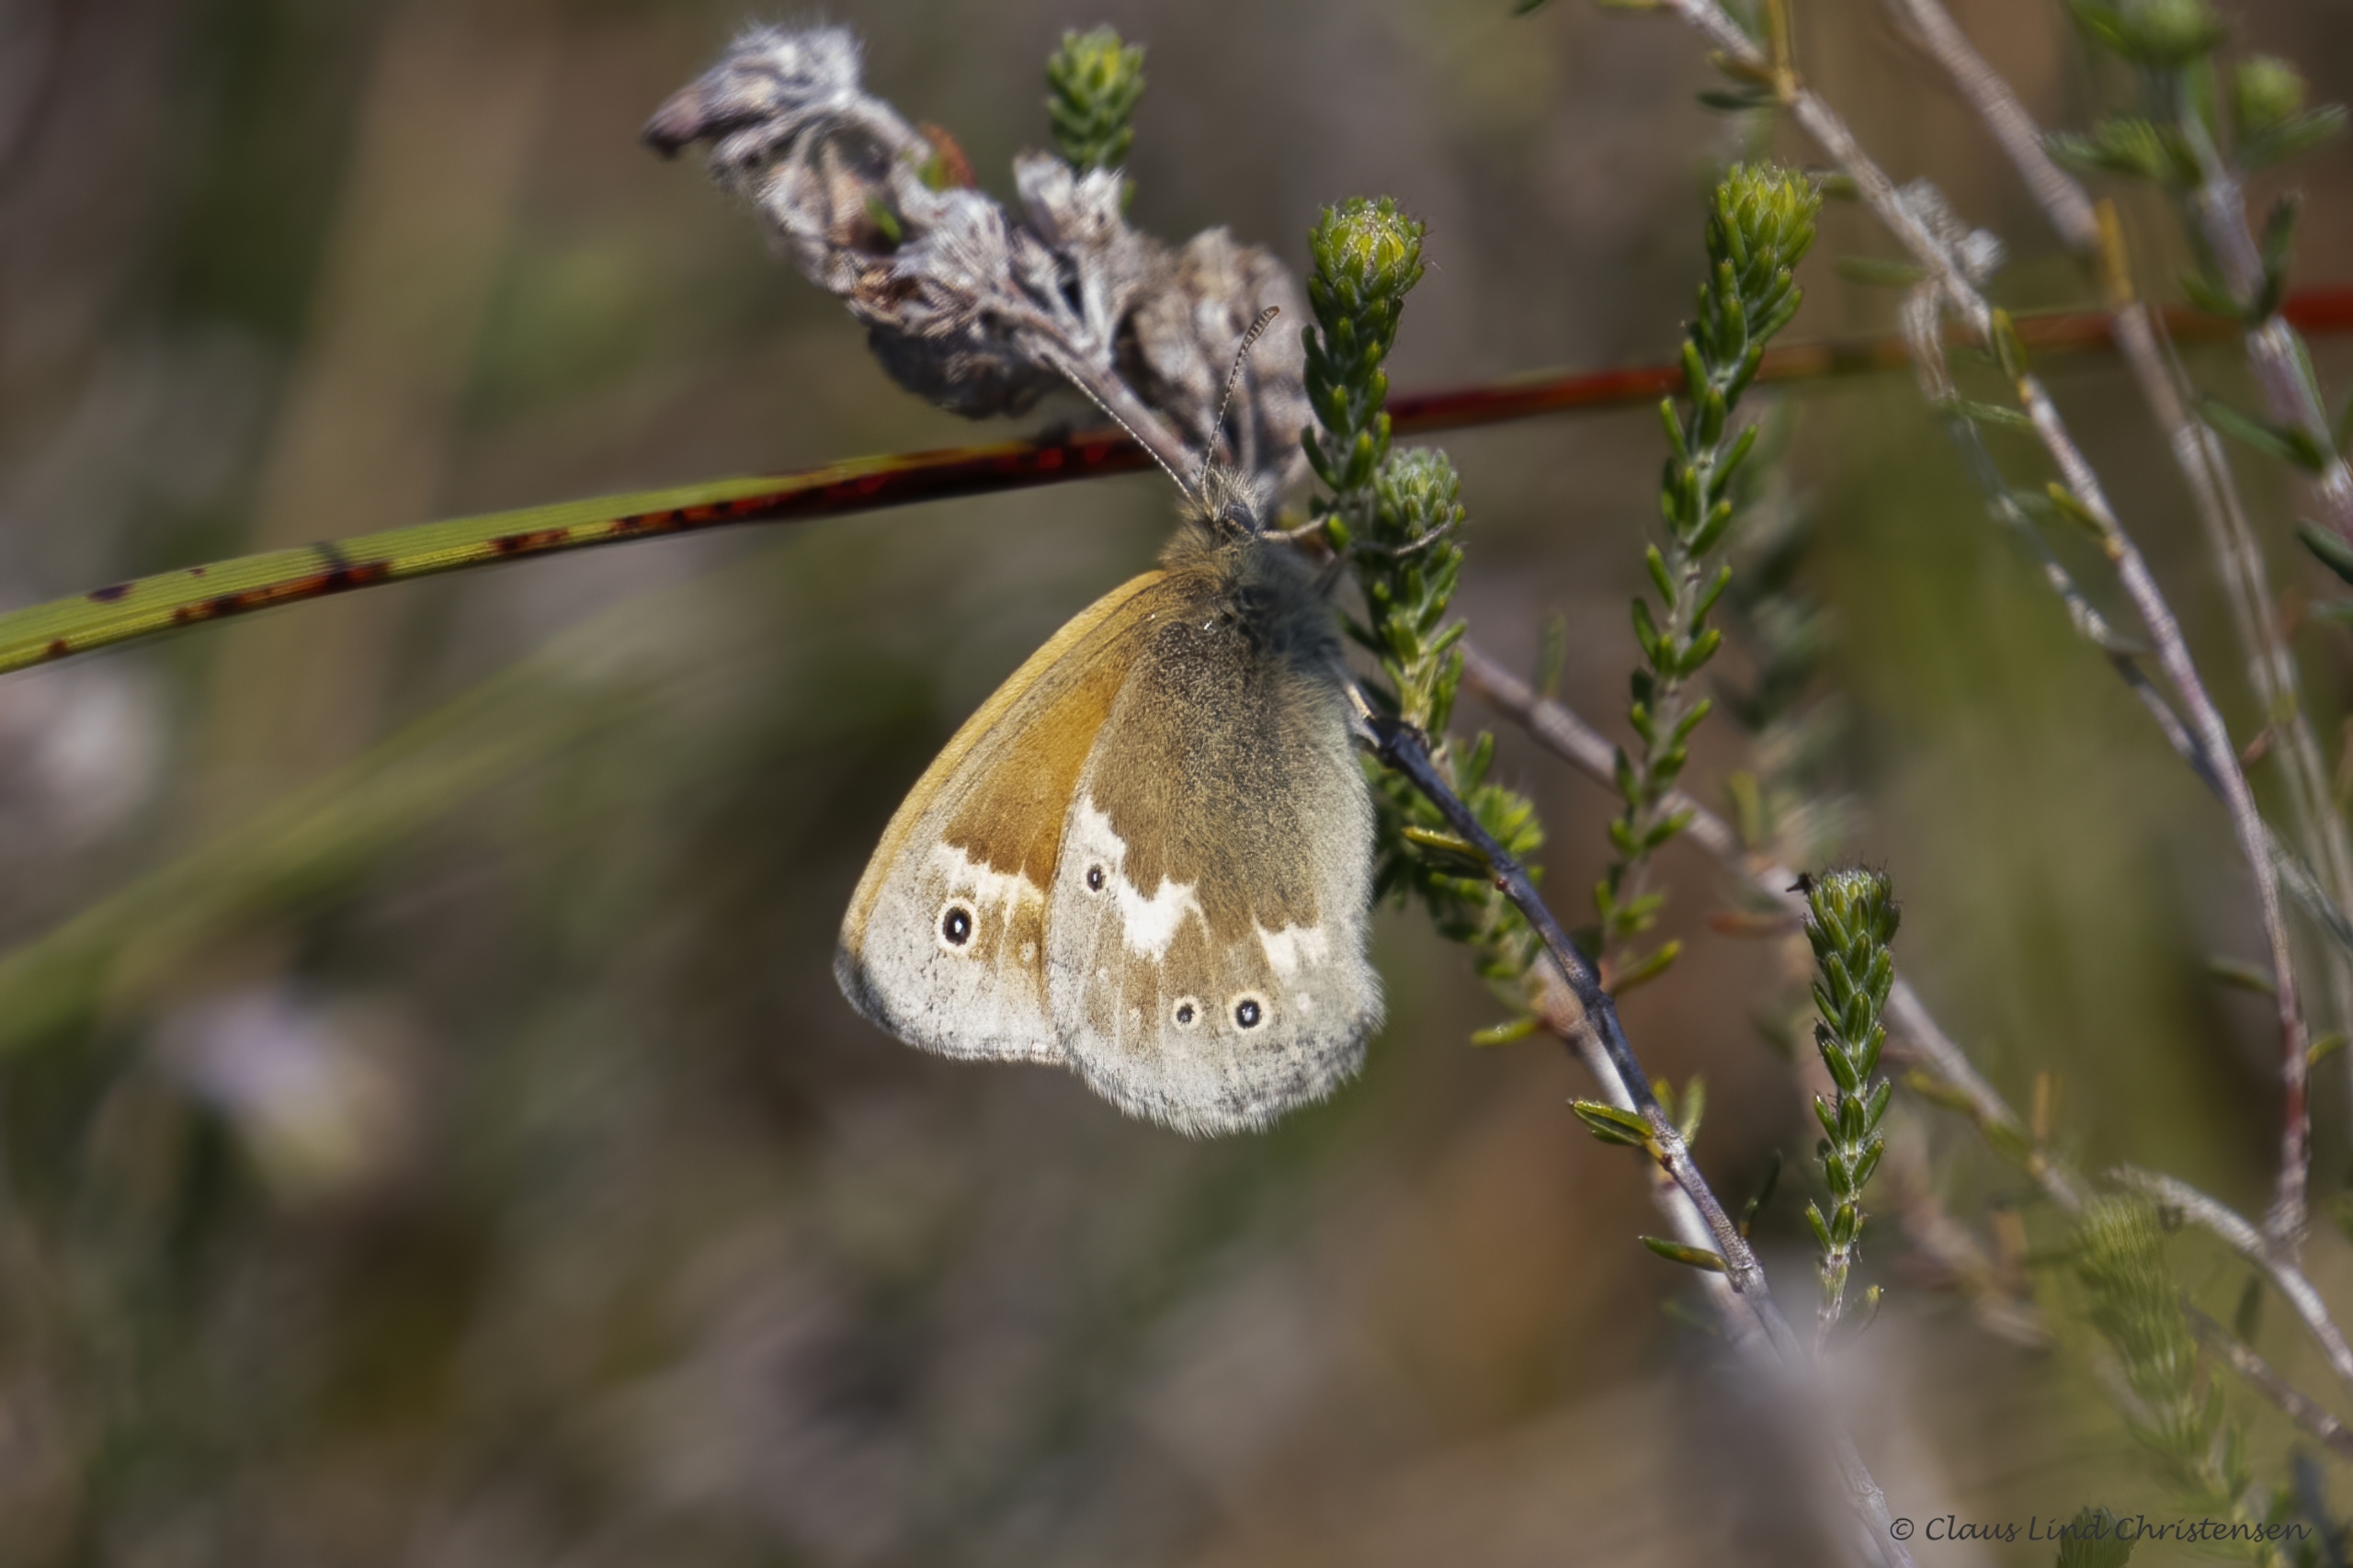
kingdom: Animalia
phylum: Arthropoda
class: Insecta
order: Lepidoptera
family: Nymphalidae
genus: Coenonympha
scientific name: Coenonympha tullia
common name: Moserandøje
